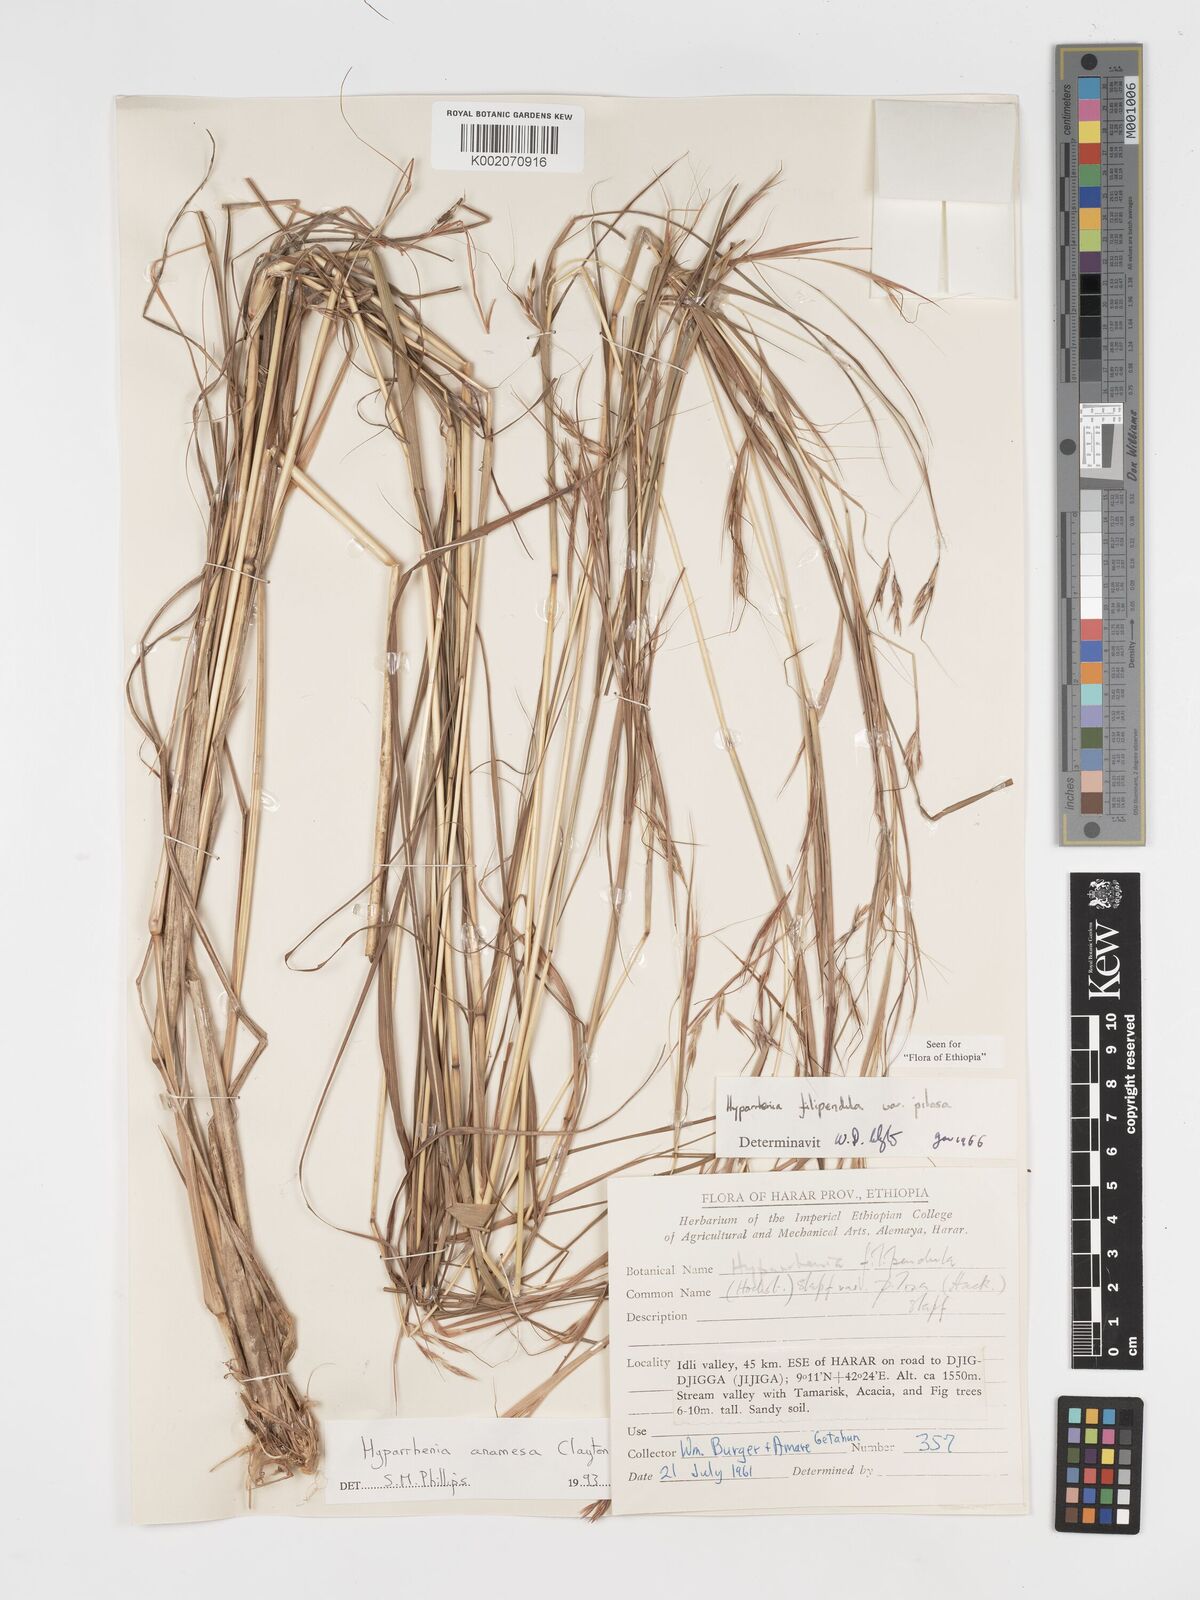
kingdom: Plantae
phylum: Tracheophyta
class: Liliopsida
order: Poales
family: Poaceae
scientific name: Poaceae
